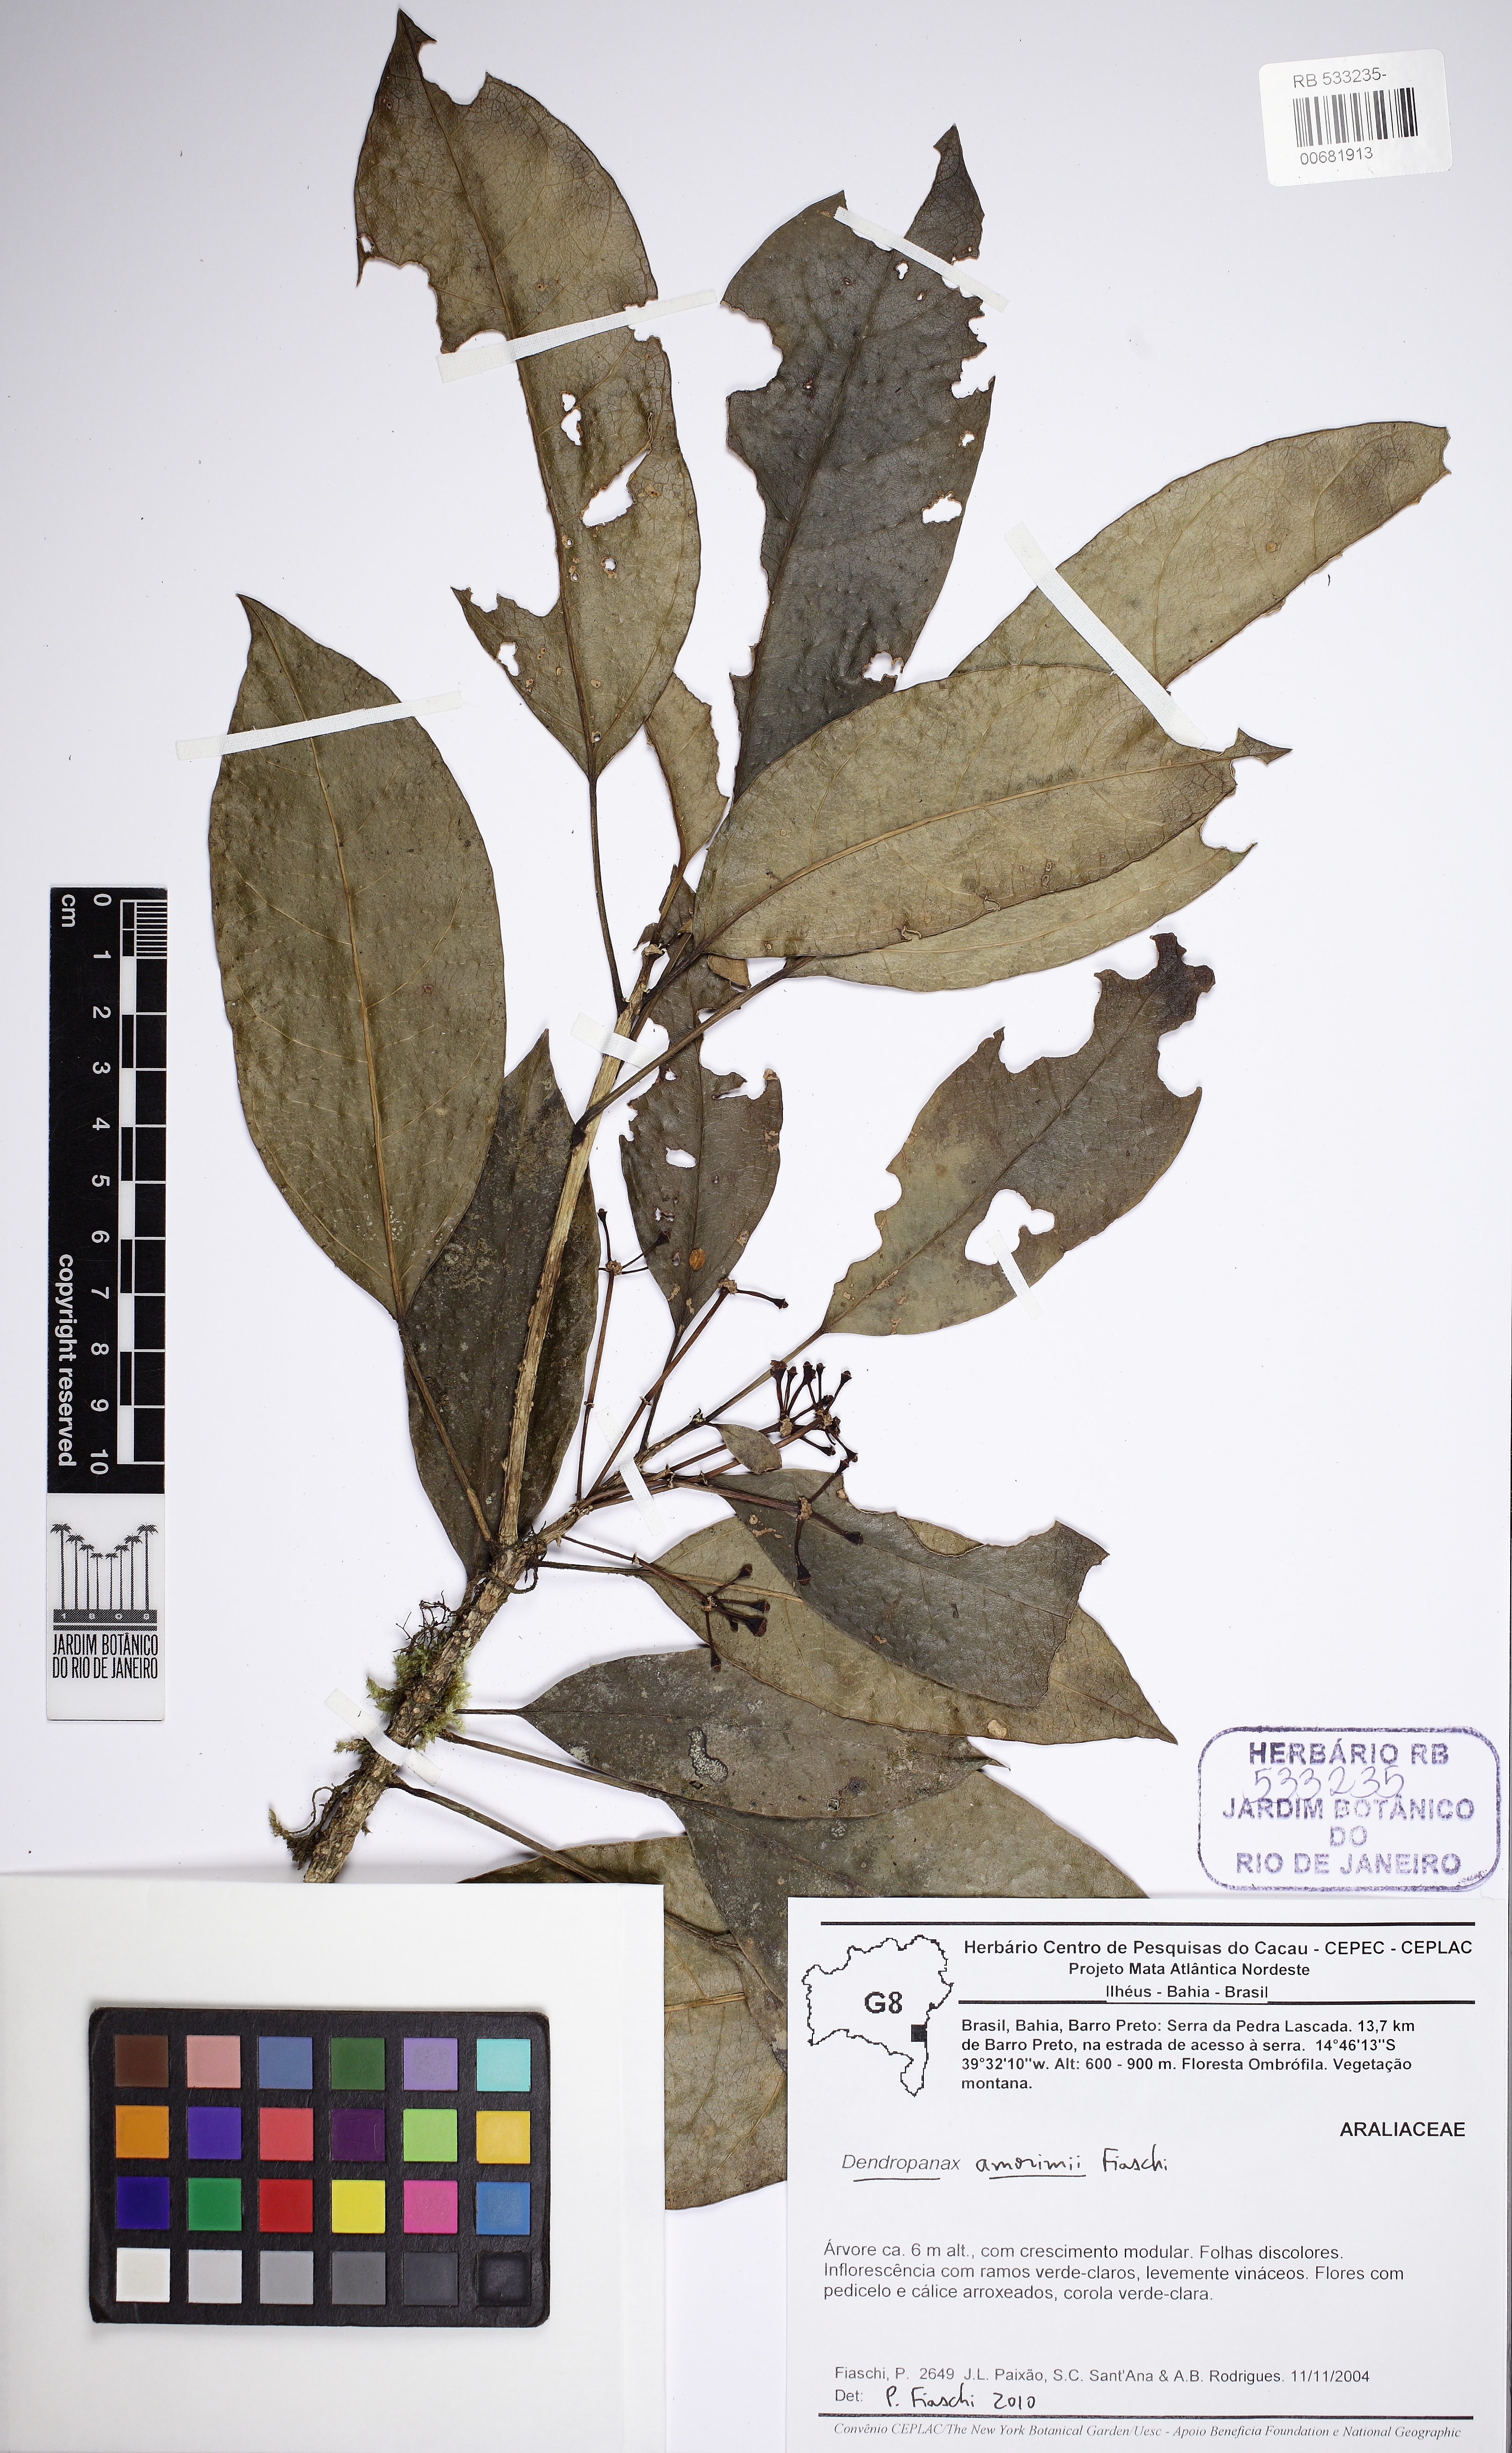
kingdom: Plantae
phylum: Tracheophyta
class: Magnoliopsida
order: Apiales
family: Araliaceae
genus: Dendropanax
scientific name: Dendropanax amorimii
